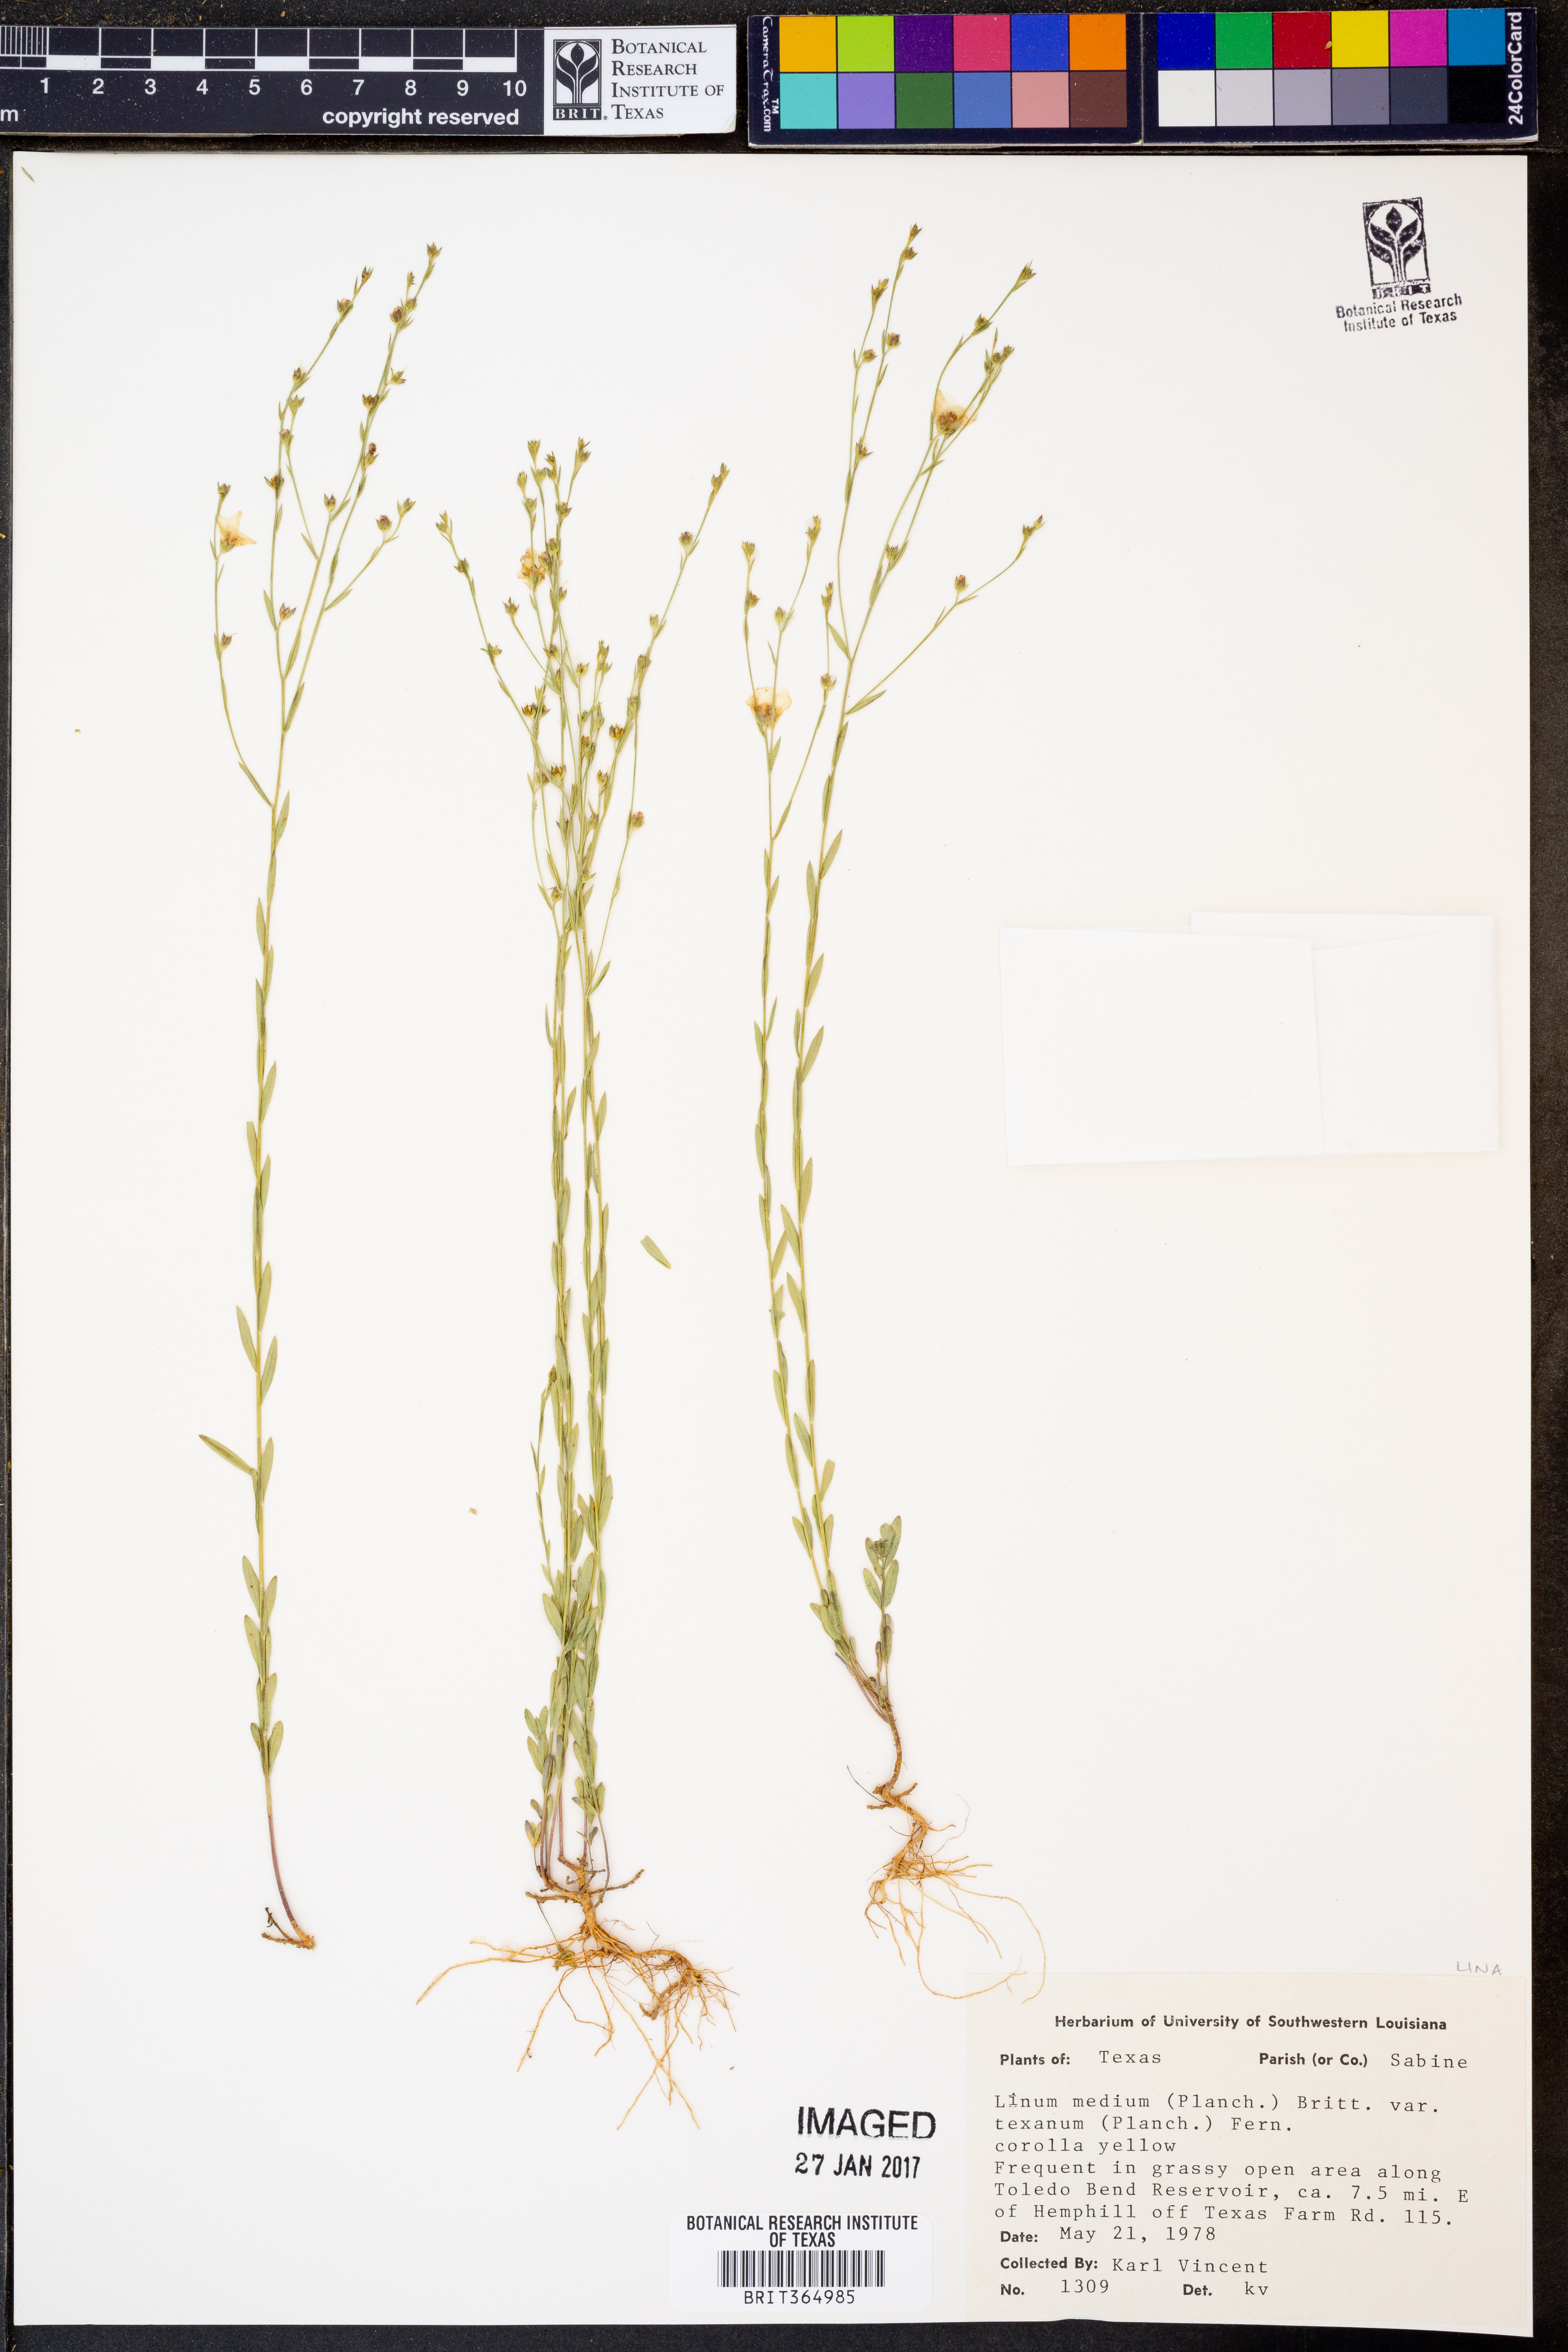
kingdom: Plantae
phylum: Tracheophyta
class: Magnoliopsida
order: Malpighiales
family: Linaceae
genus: Linum
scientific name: Linum medium
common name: Stiff yellow flax
